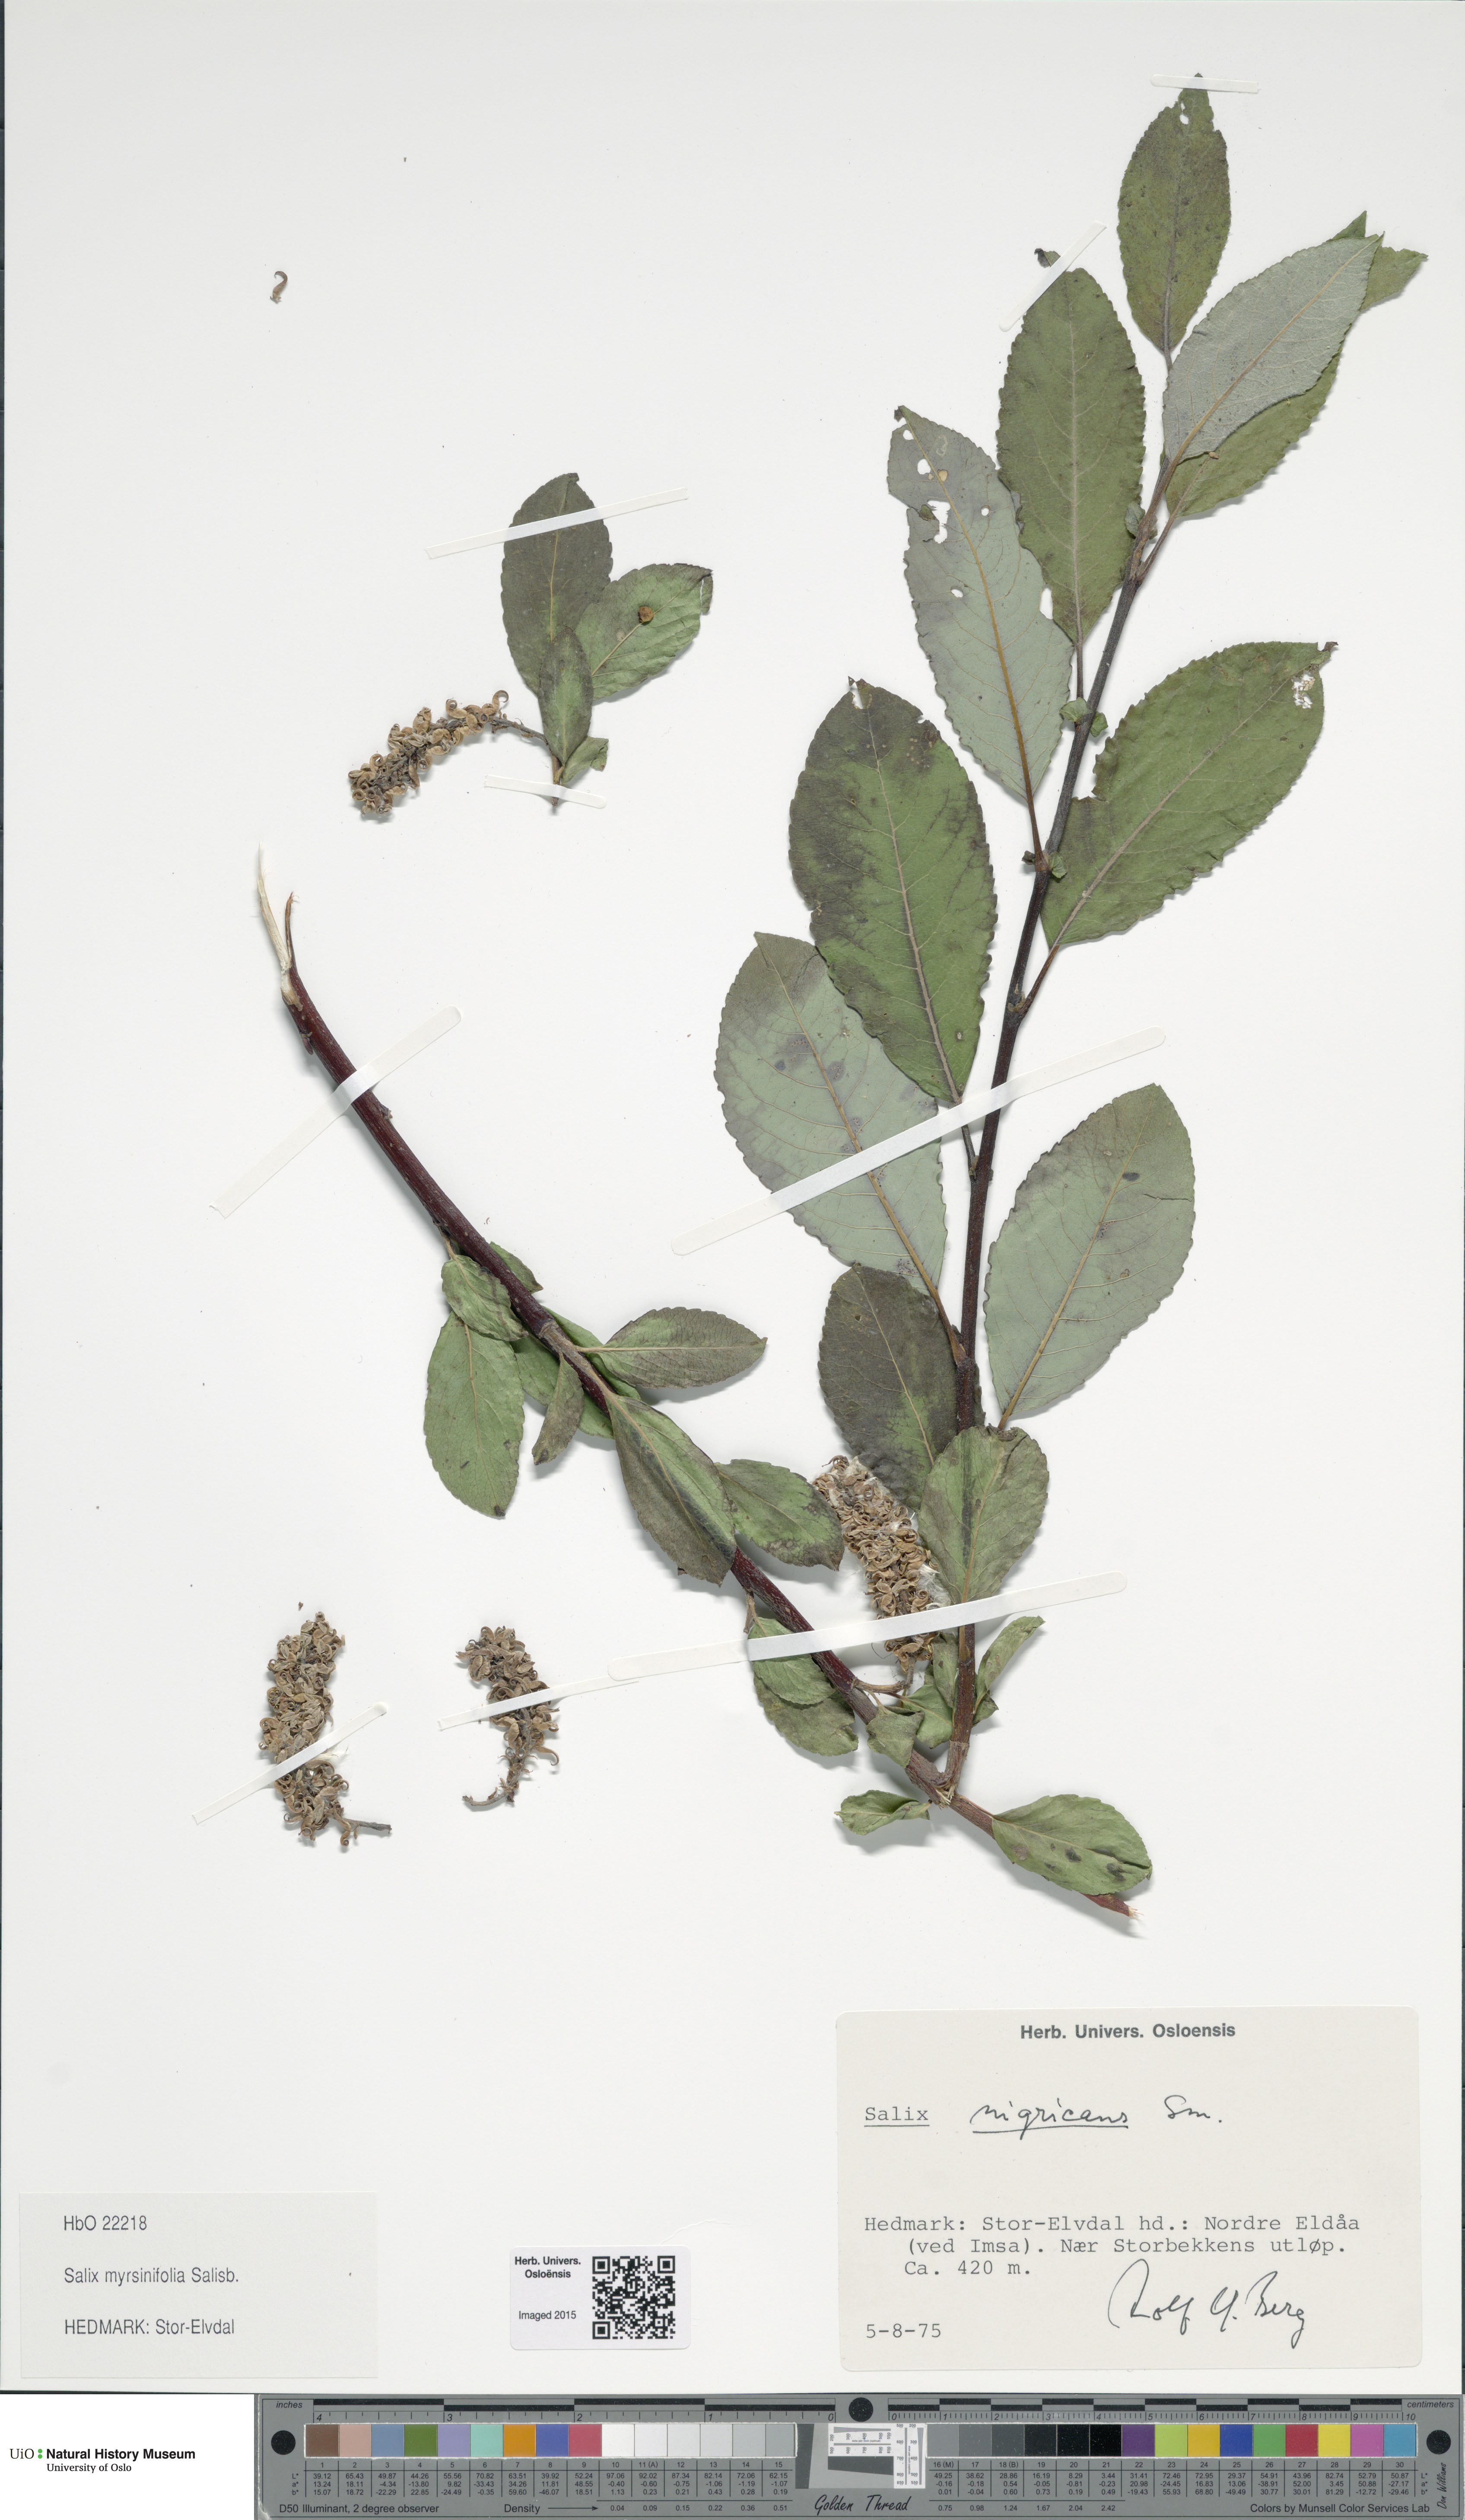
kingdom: Plantae
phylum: Tracheophyta
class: Magnoliopsida
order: Malpighiales
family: Salicaceae
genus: Salix
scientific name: Salix myrsinifolia
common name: Dark-leaved willow
